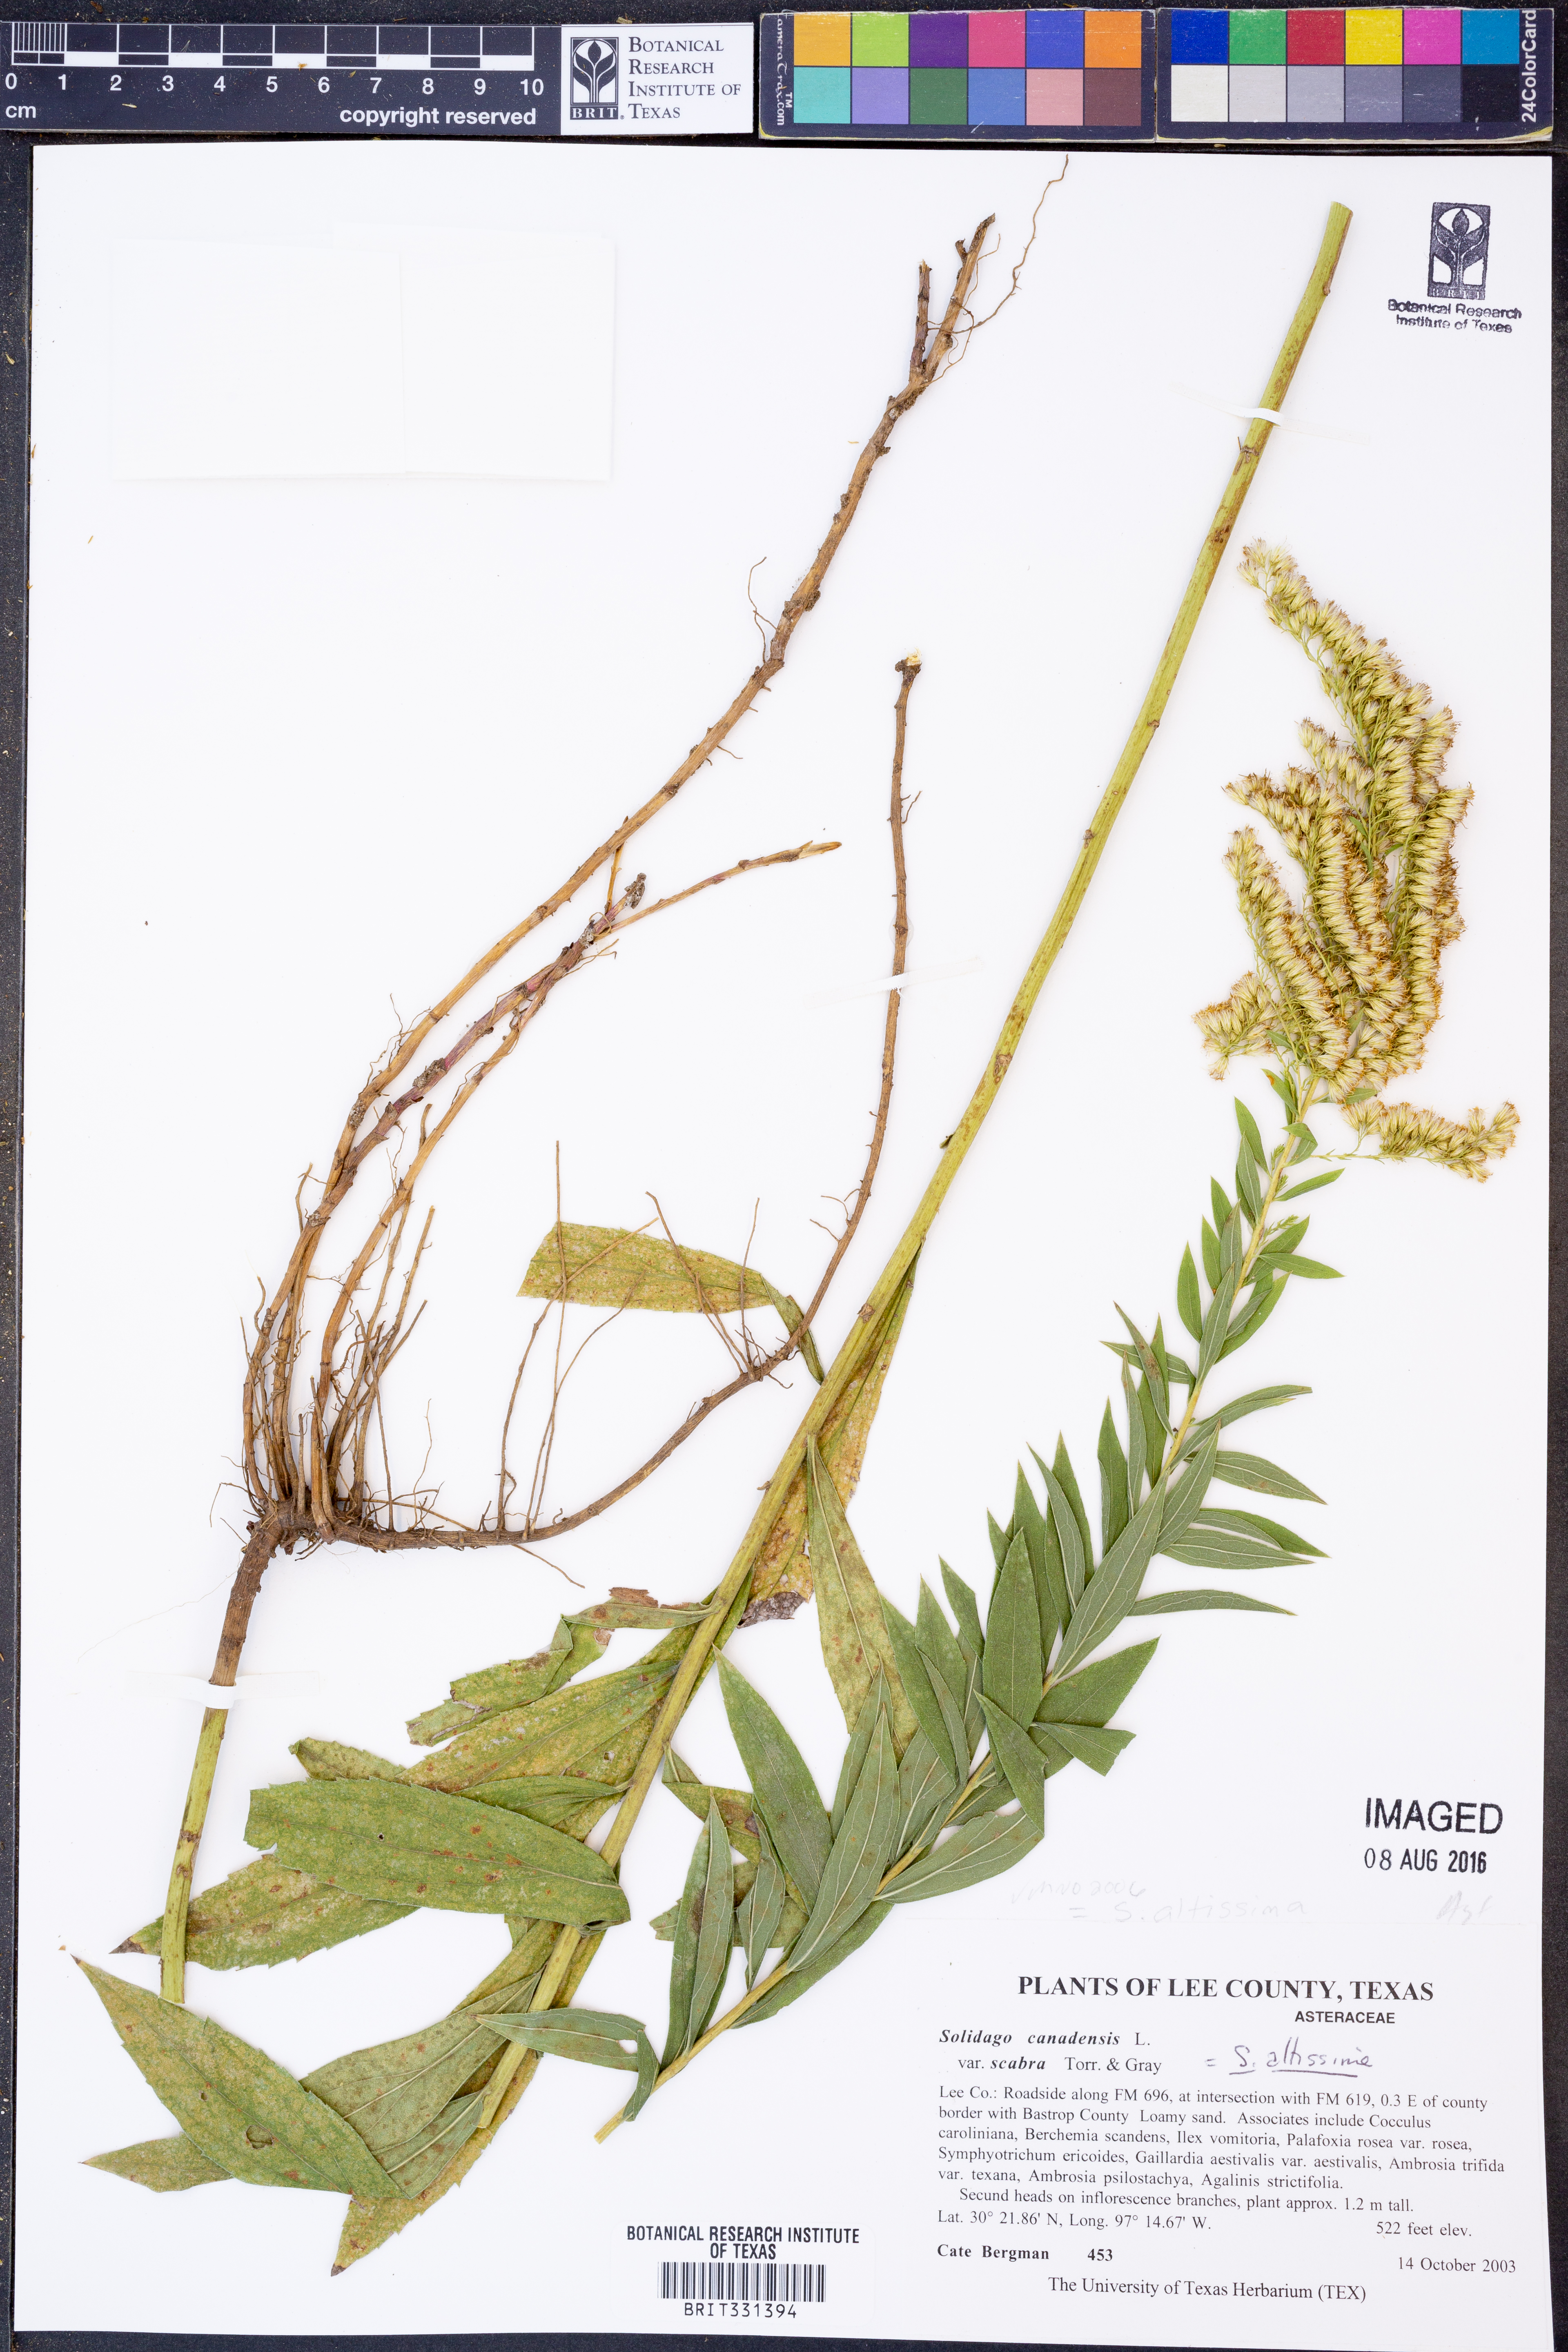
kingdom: Plantae
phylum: Tracheophyta
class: Magnoliopsida
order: Asterales
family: Asteraceae
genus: Solidago
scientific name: Solidago altissima
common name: Late goldenrod
